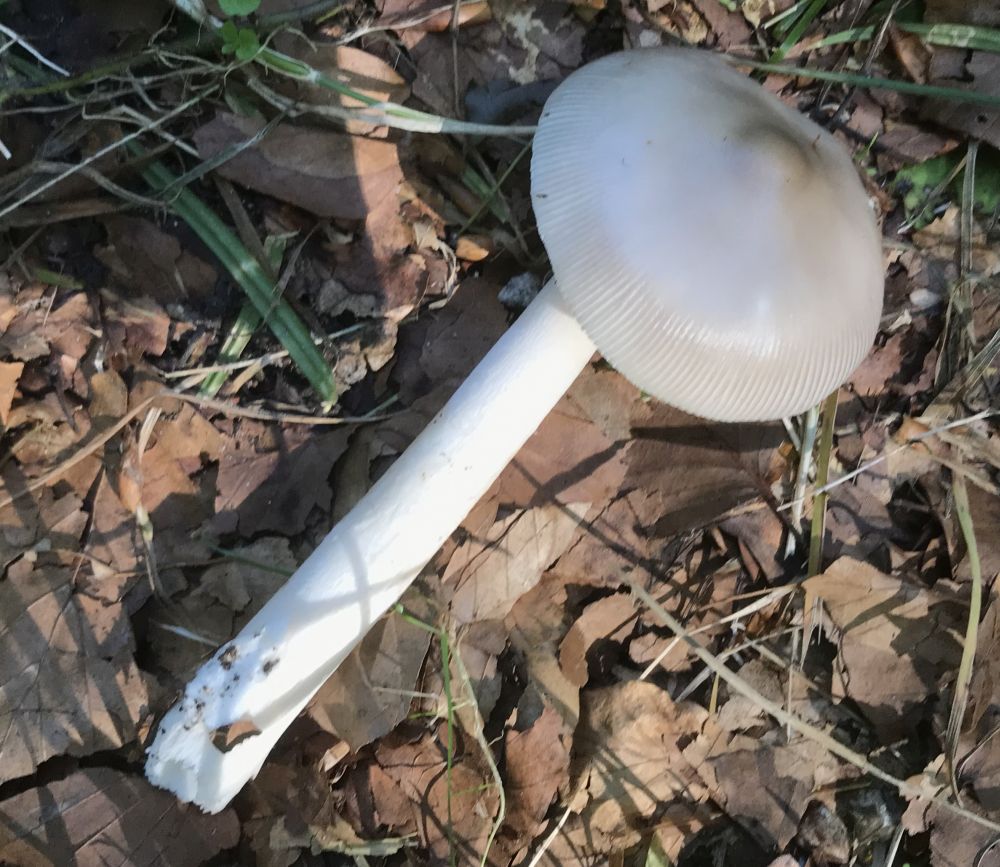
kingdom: Fungi
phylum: Basidiomycota
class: Agaricomycetes
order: Agaricales
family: Amanitaceae
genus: Amanita
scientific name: Amanita vaginata
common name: grå kam-fluesvamp
